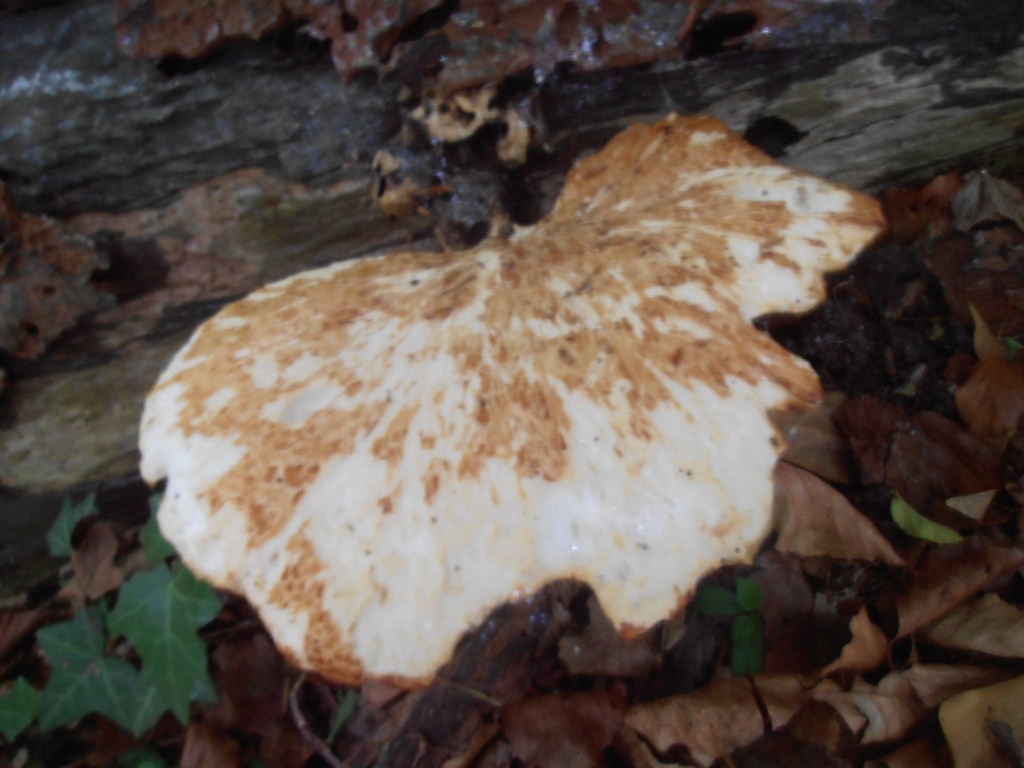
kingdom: Fungi
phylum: Basidiomycota
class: Agaricomycetes
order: Polyporales
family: Polyporaceae
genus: Cerioporus
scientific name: Cerioporus squamosus
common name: skællet stilkporesvamp
